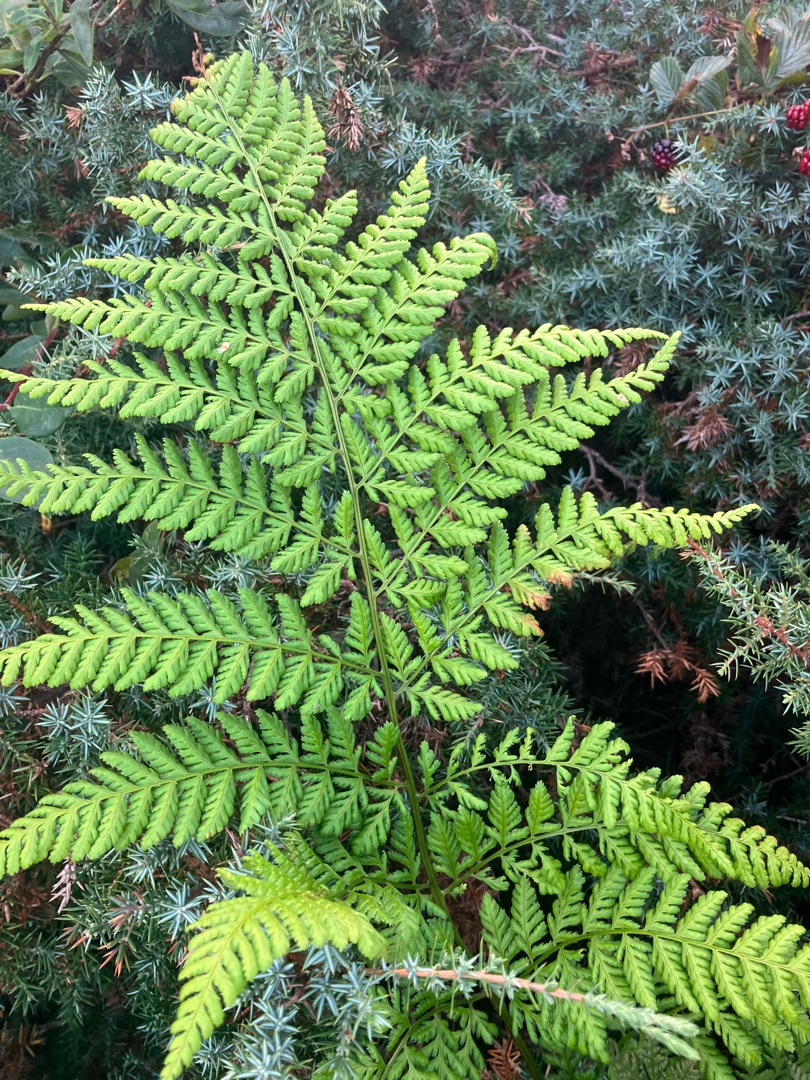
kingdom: Plantae
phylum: Tracheophyta
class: Polypodiopsida
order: Polypodiales
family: Dryopteridaceae
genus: Dryopteris
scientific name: Dryopteris dilatata
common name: Bredbladet mangeløv
